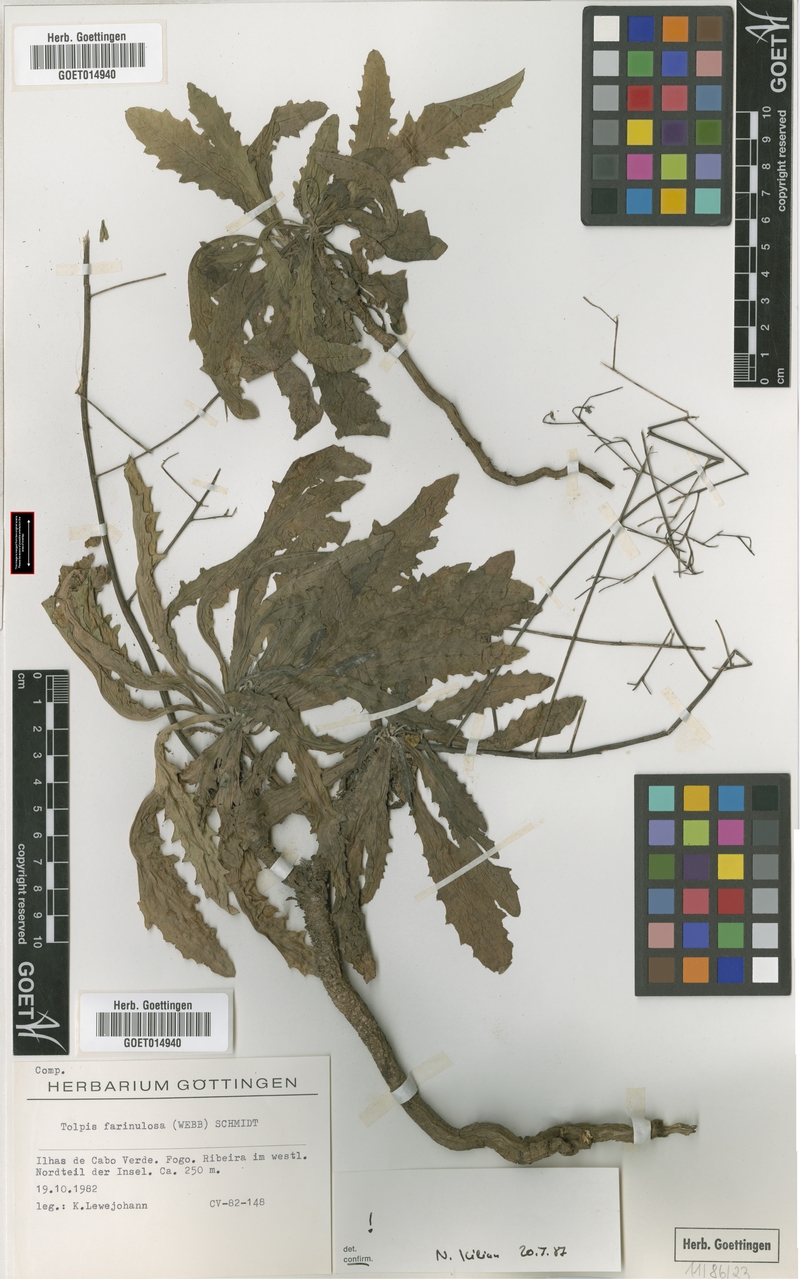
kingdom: Plantae
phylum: Tracheophyta
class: Magnoliopsida
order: Asterales
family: Asteraceae
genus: Tolpis
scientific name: Tolpis farinulosa
